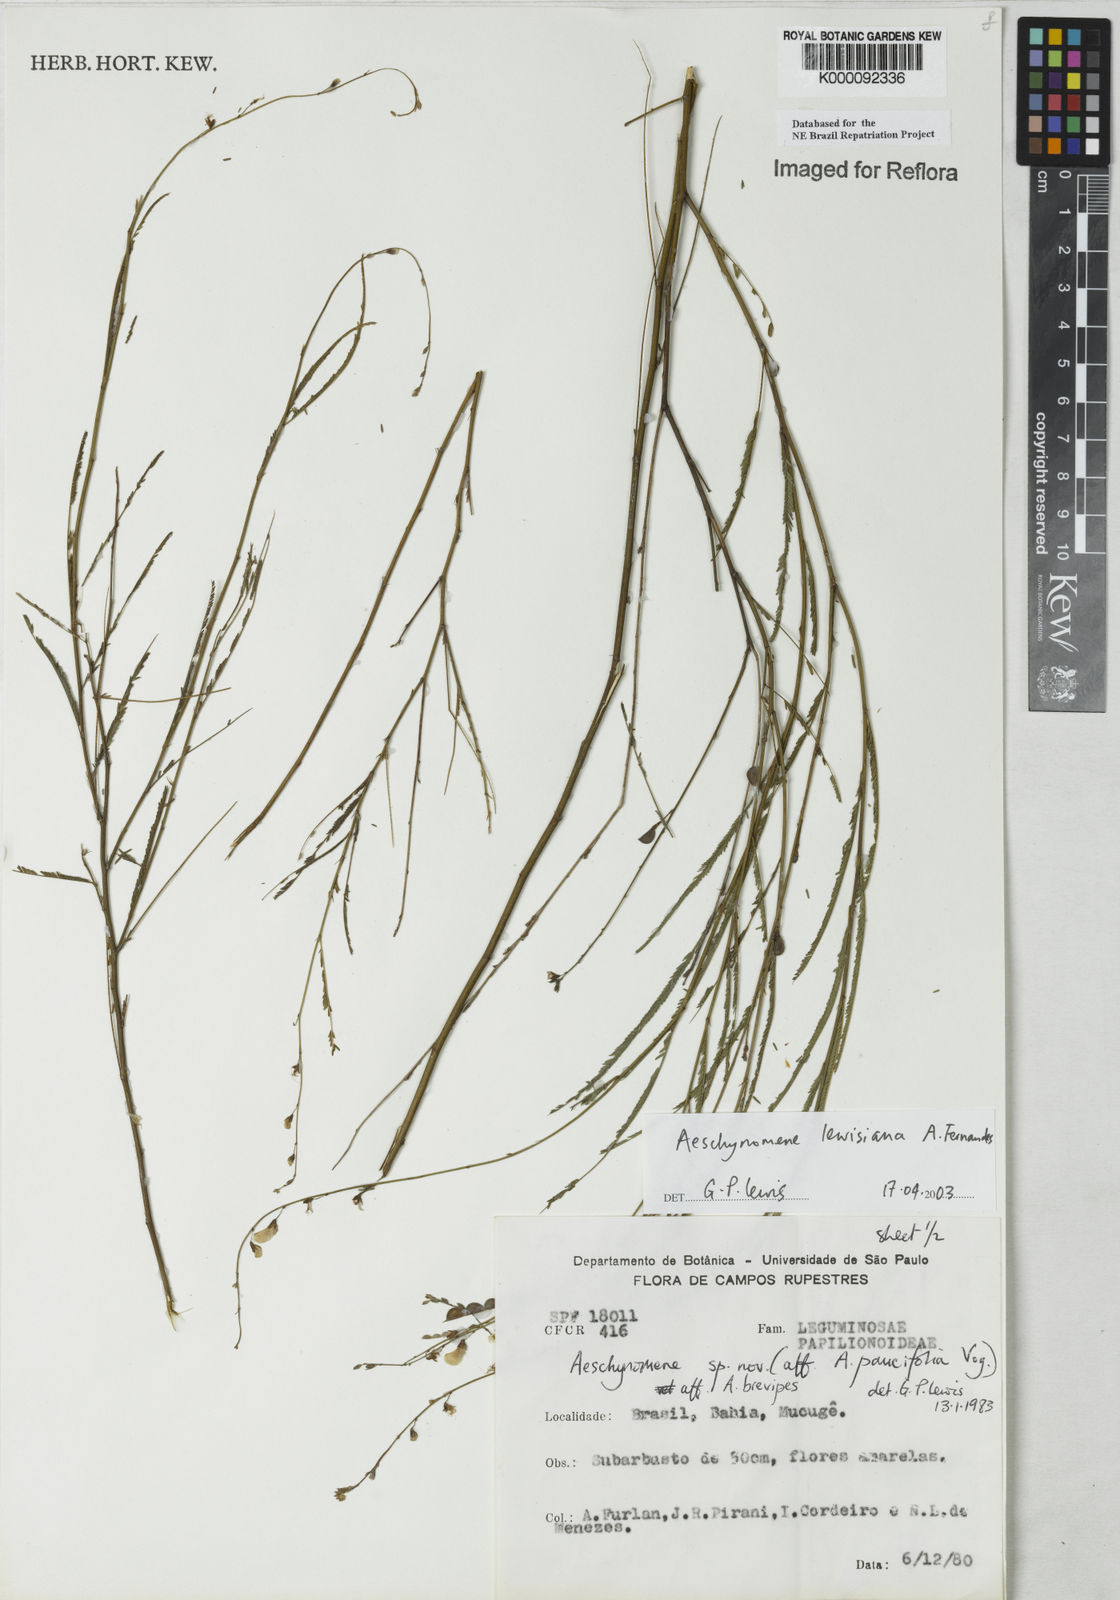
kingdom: Plantae
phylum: Tracheophyta
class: Magnoliopsida
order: Fabales
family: Fabaceae
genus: Ctenodon
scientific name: Ctenodon lewisianus
